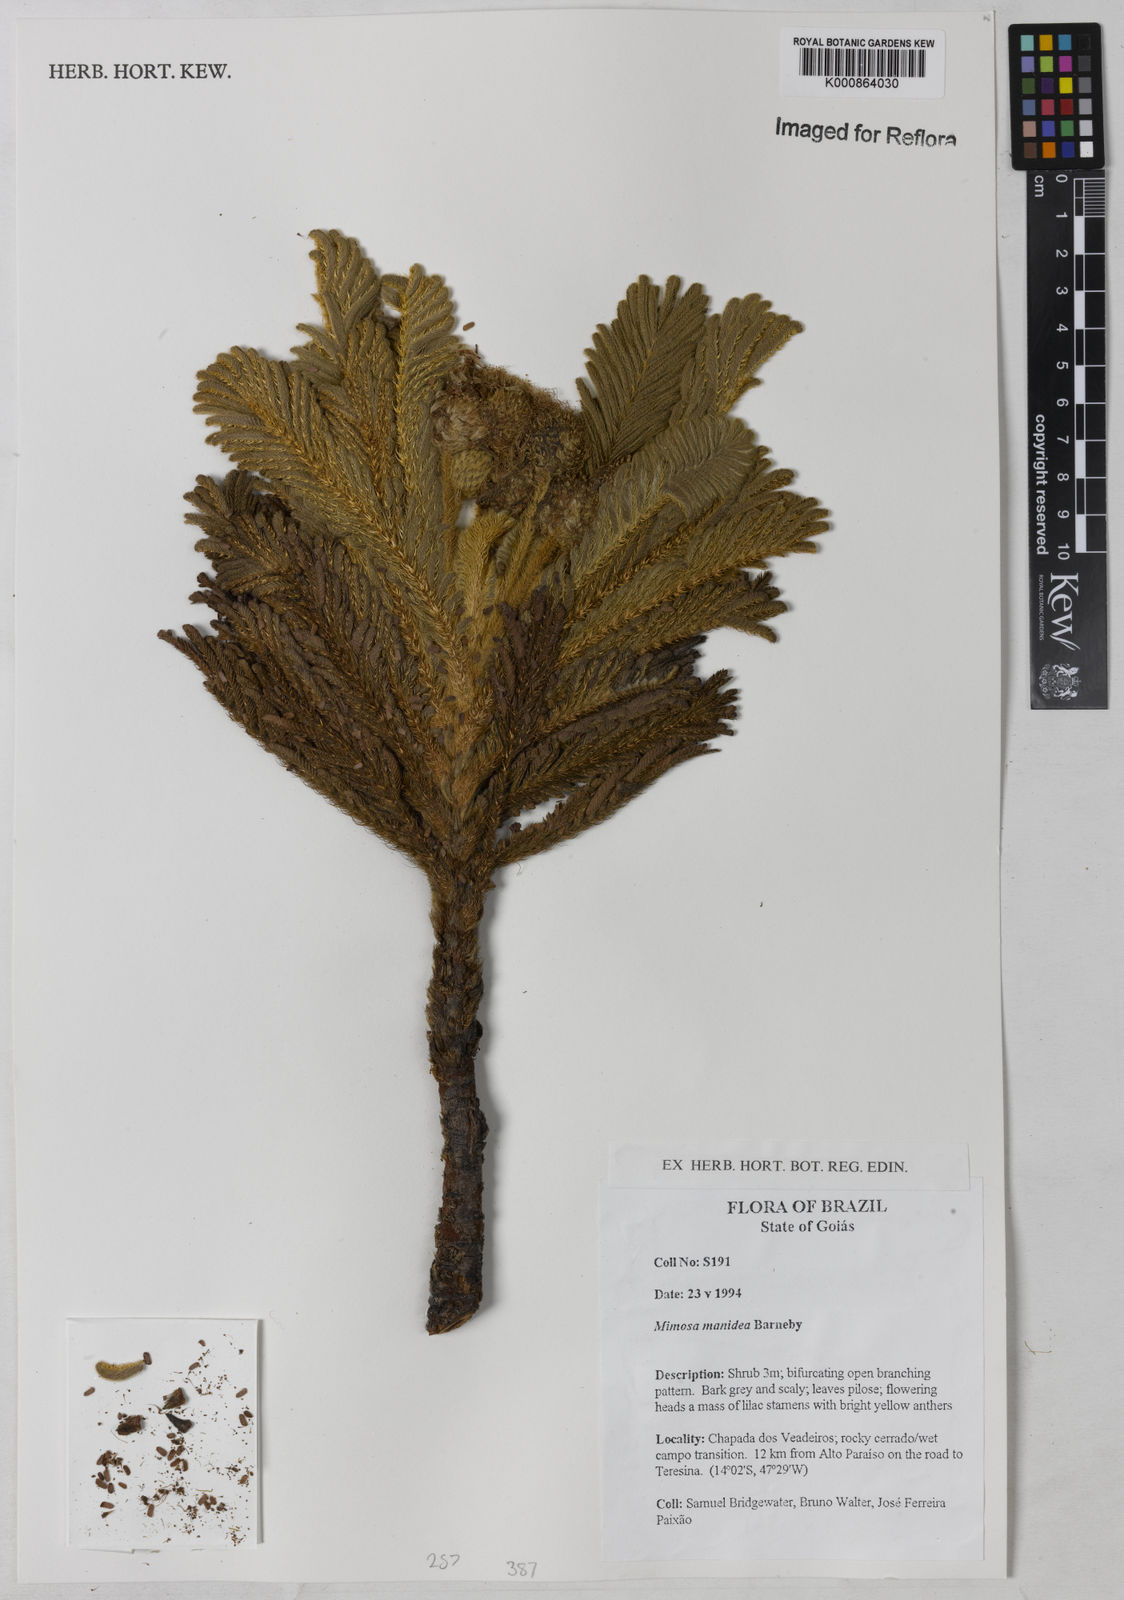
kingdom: Plantae
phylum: Tracheophyta
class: Magnoliopsida
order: Fabales
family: Fabaceae
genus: Mimosa
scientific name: Mimosa manidea
